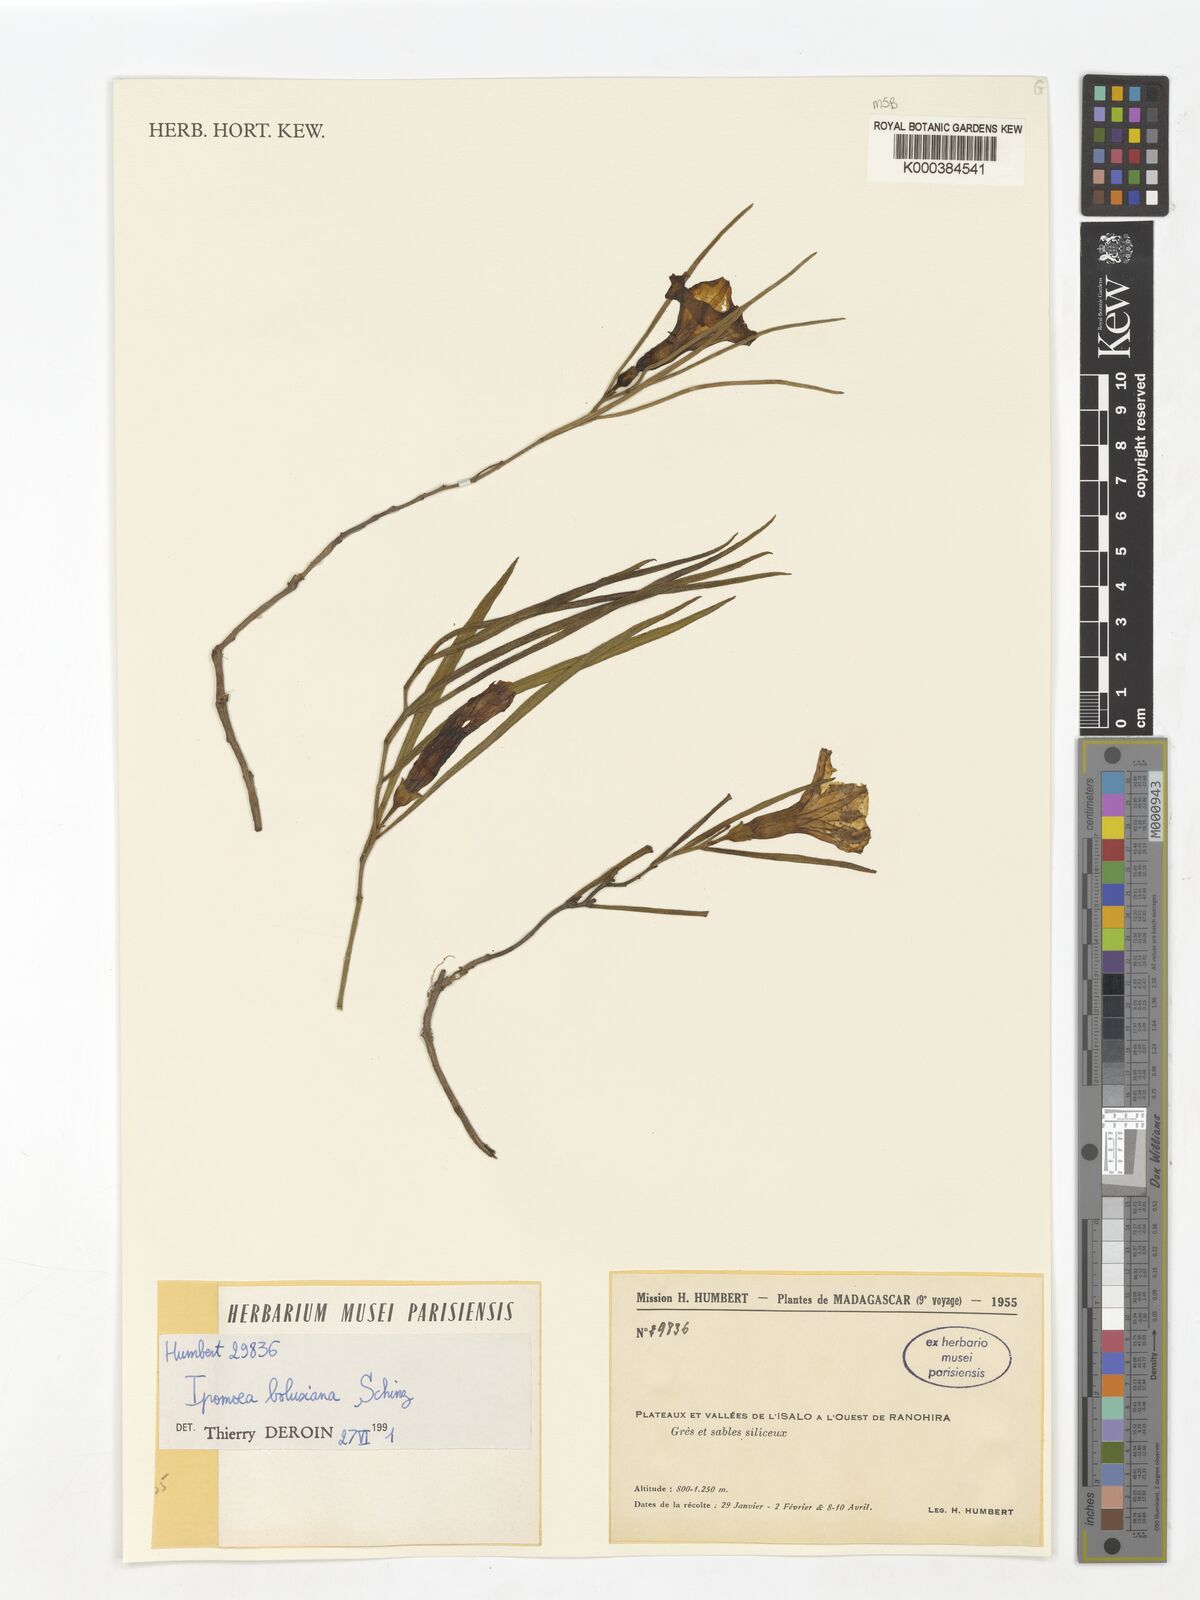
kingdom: Plantae
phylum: Tracheophyta
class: Magnoliopsida
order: Solanales
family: Convolvulaceae
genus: Ipomoea
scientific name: Ipomoea bolusiana
